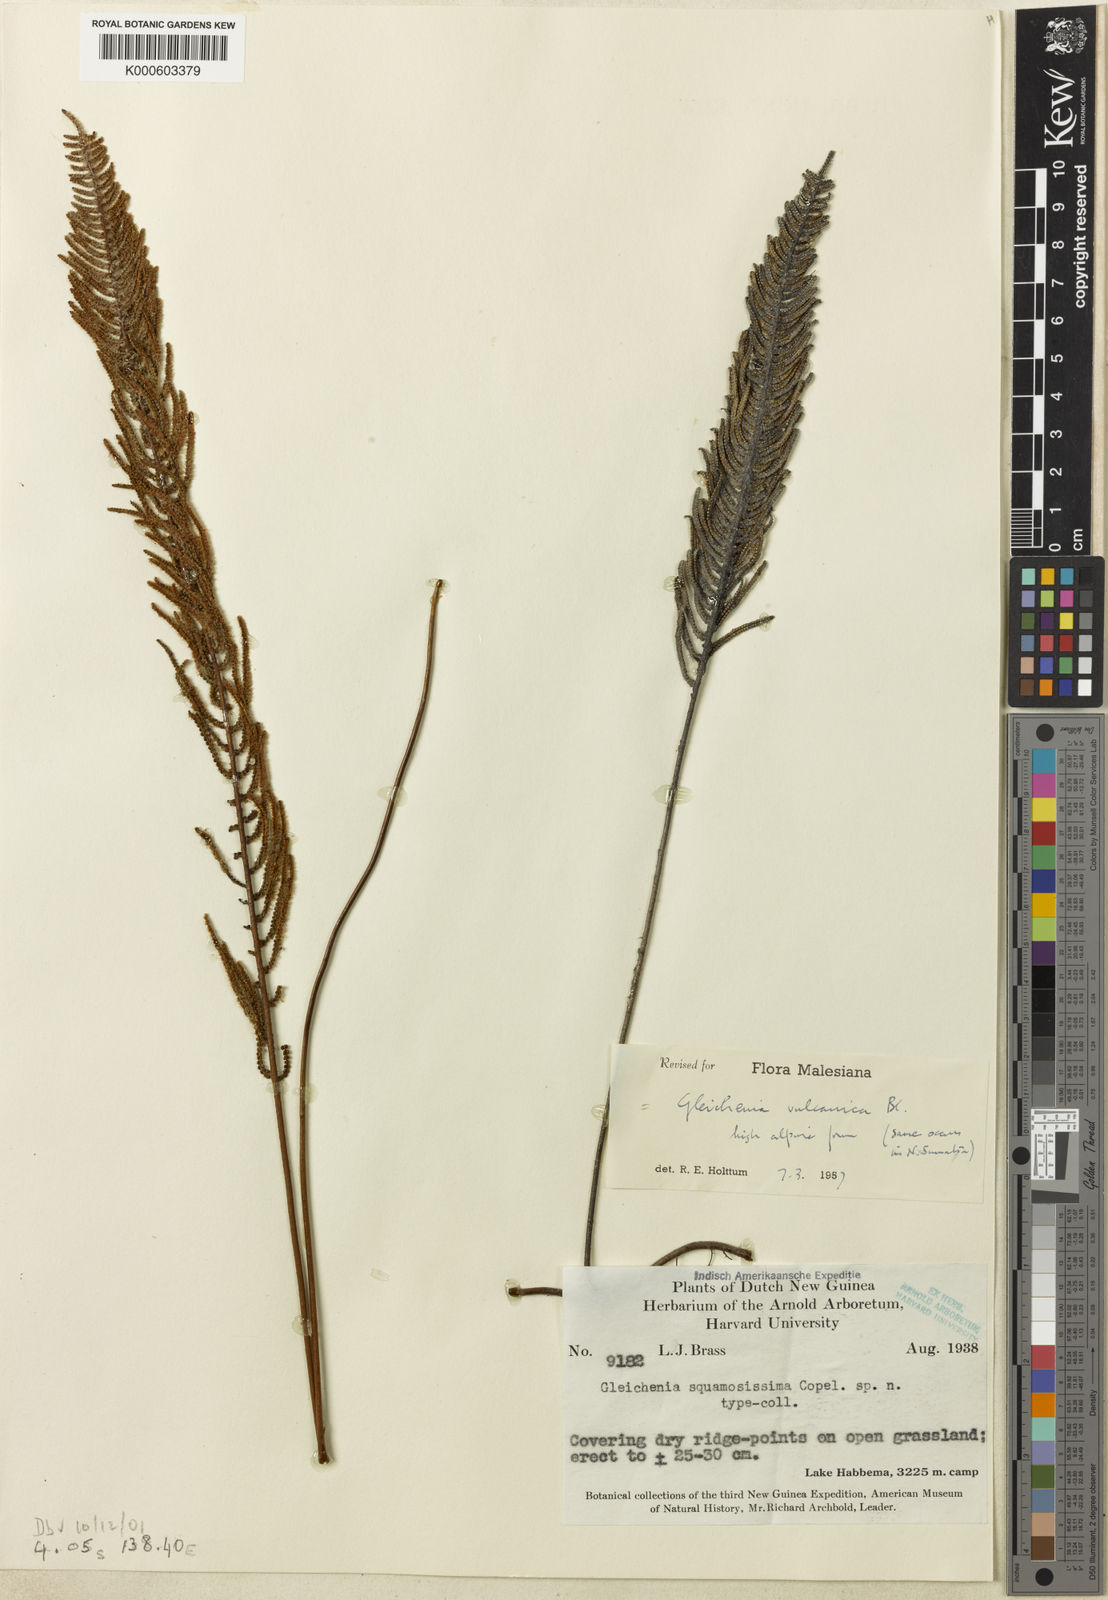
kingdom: Plantae
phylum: Tracheophyta
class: Polypodiopsida
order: Gleicheniales
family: Gleicheniaceae
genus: Gleichenia
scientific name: Gleichenia vulcanica
